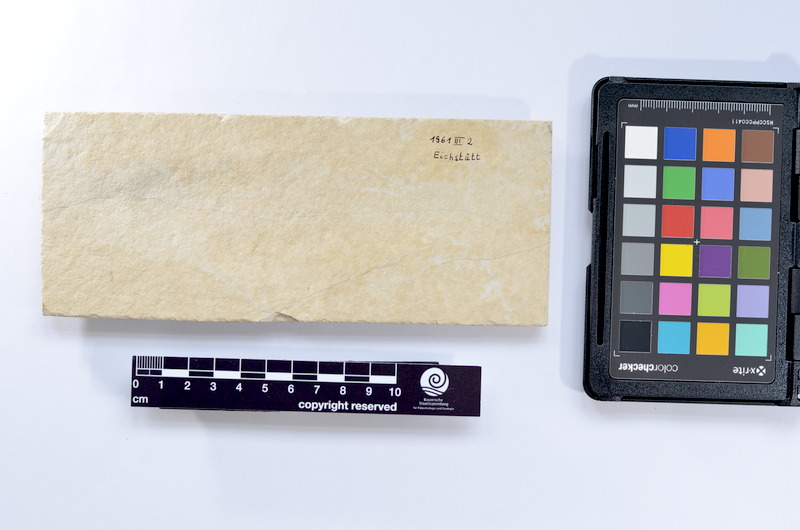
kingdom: Animalia
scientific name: Animalia
